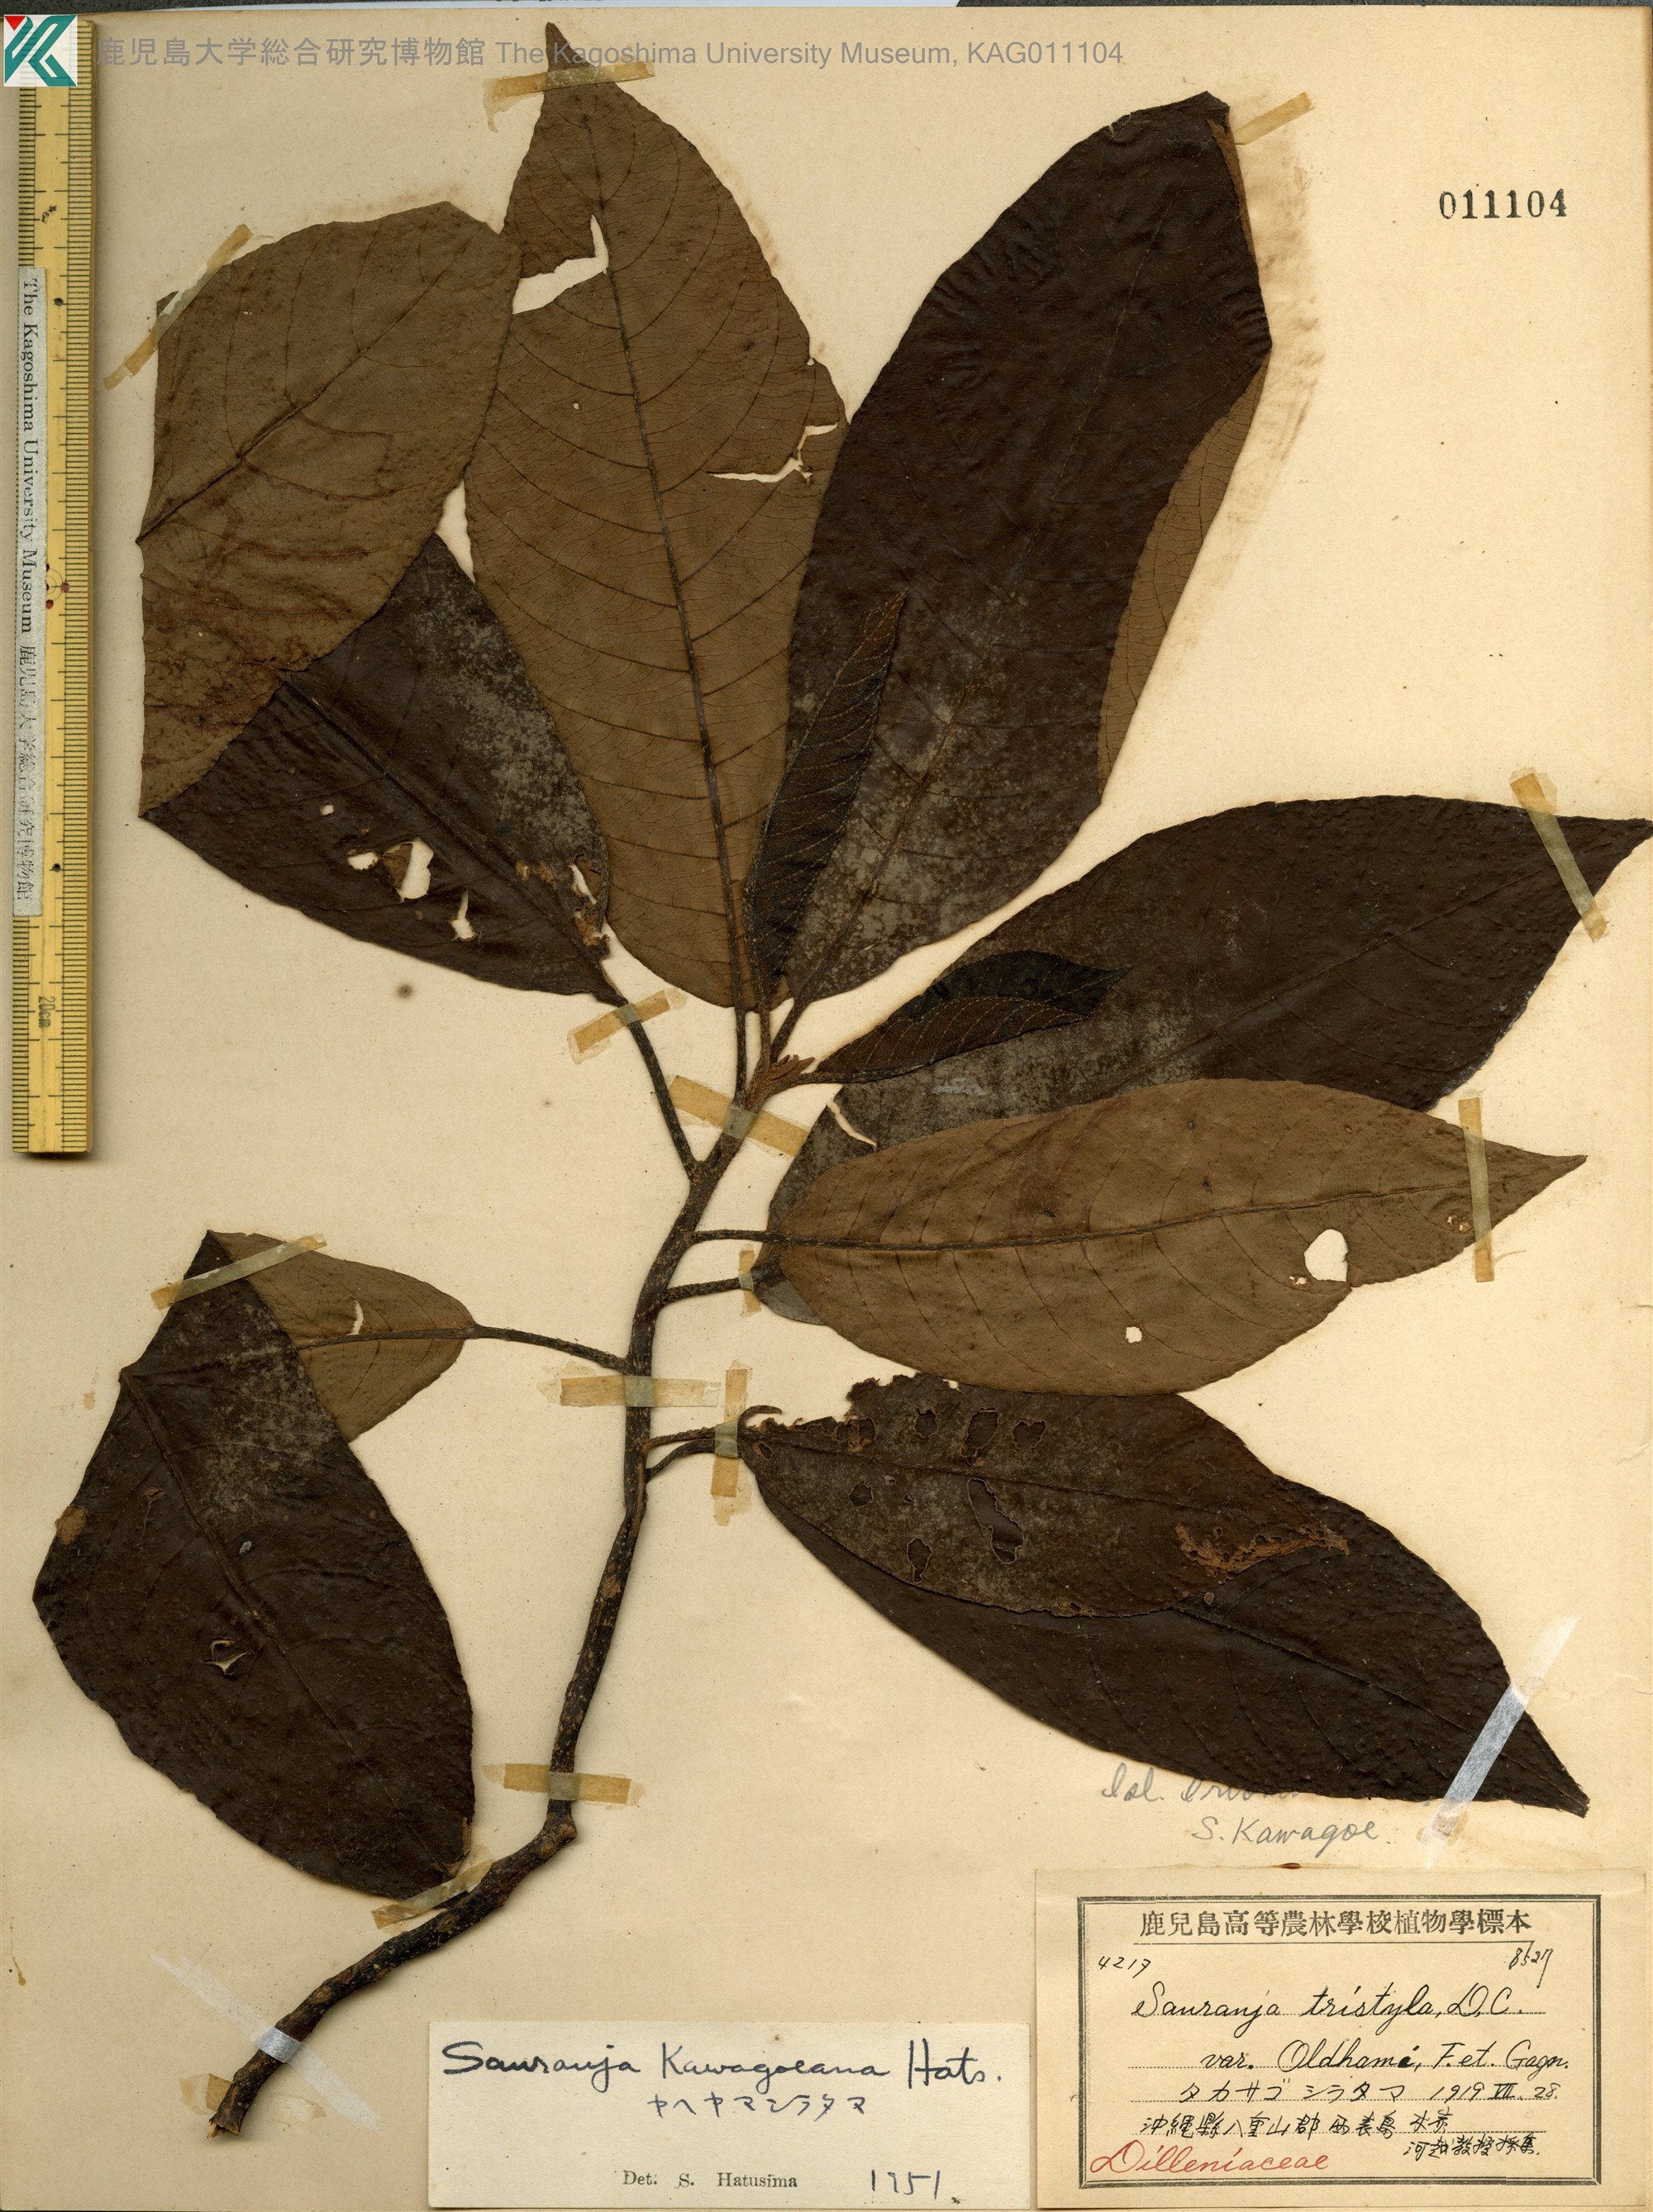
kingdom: Plantae
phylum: Tracheophyta
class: Magnoliopsida
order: Ericales
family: Actinidiaceae
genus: Saurauia
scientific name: Saurauia tristyla
